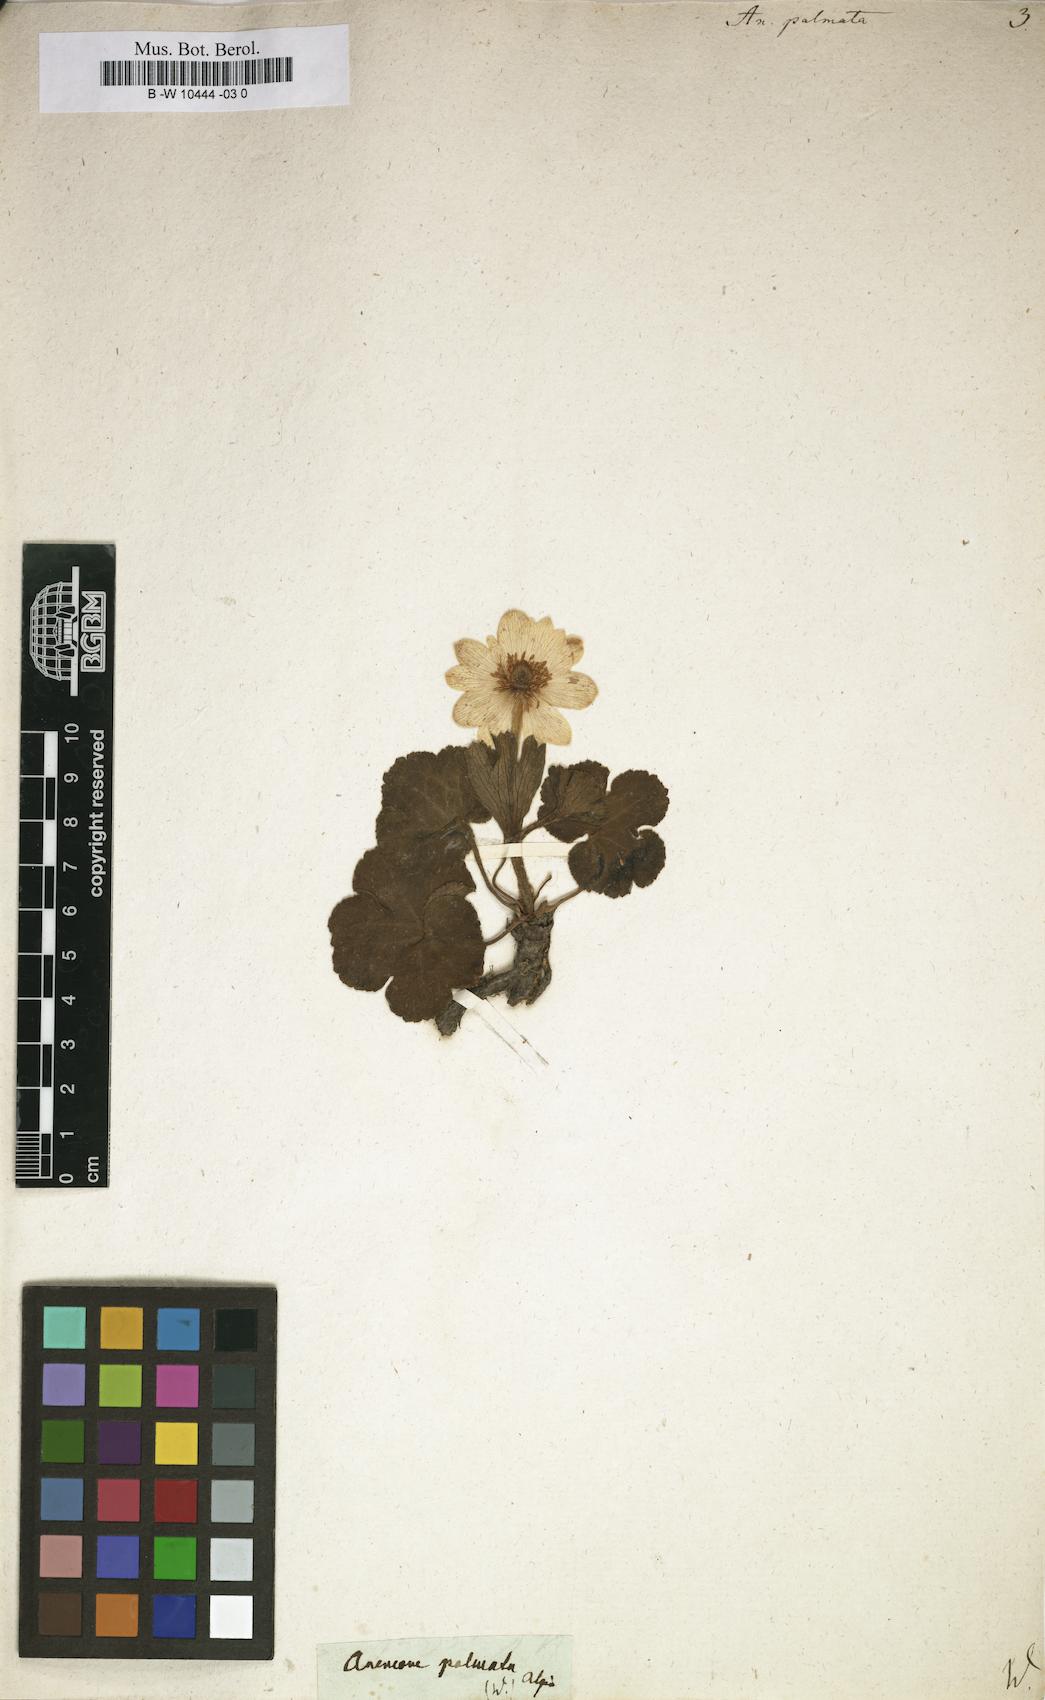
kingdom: Plantae
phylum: Tracheophyta
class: Magnoliopsida
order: Ranunculales
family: Ranunculaceae
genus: Anemone
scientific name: Anemone palmata
